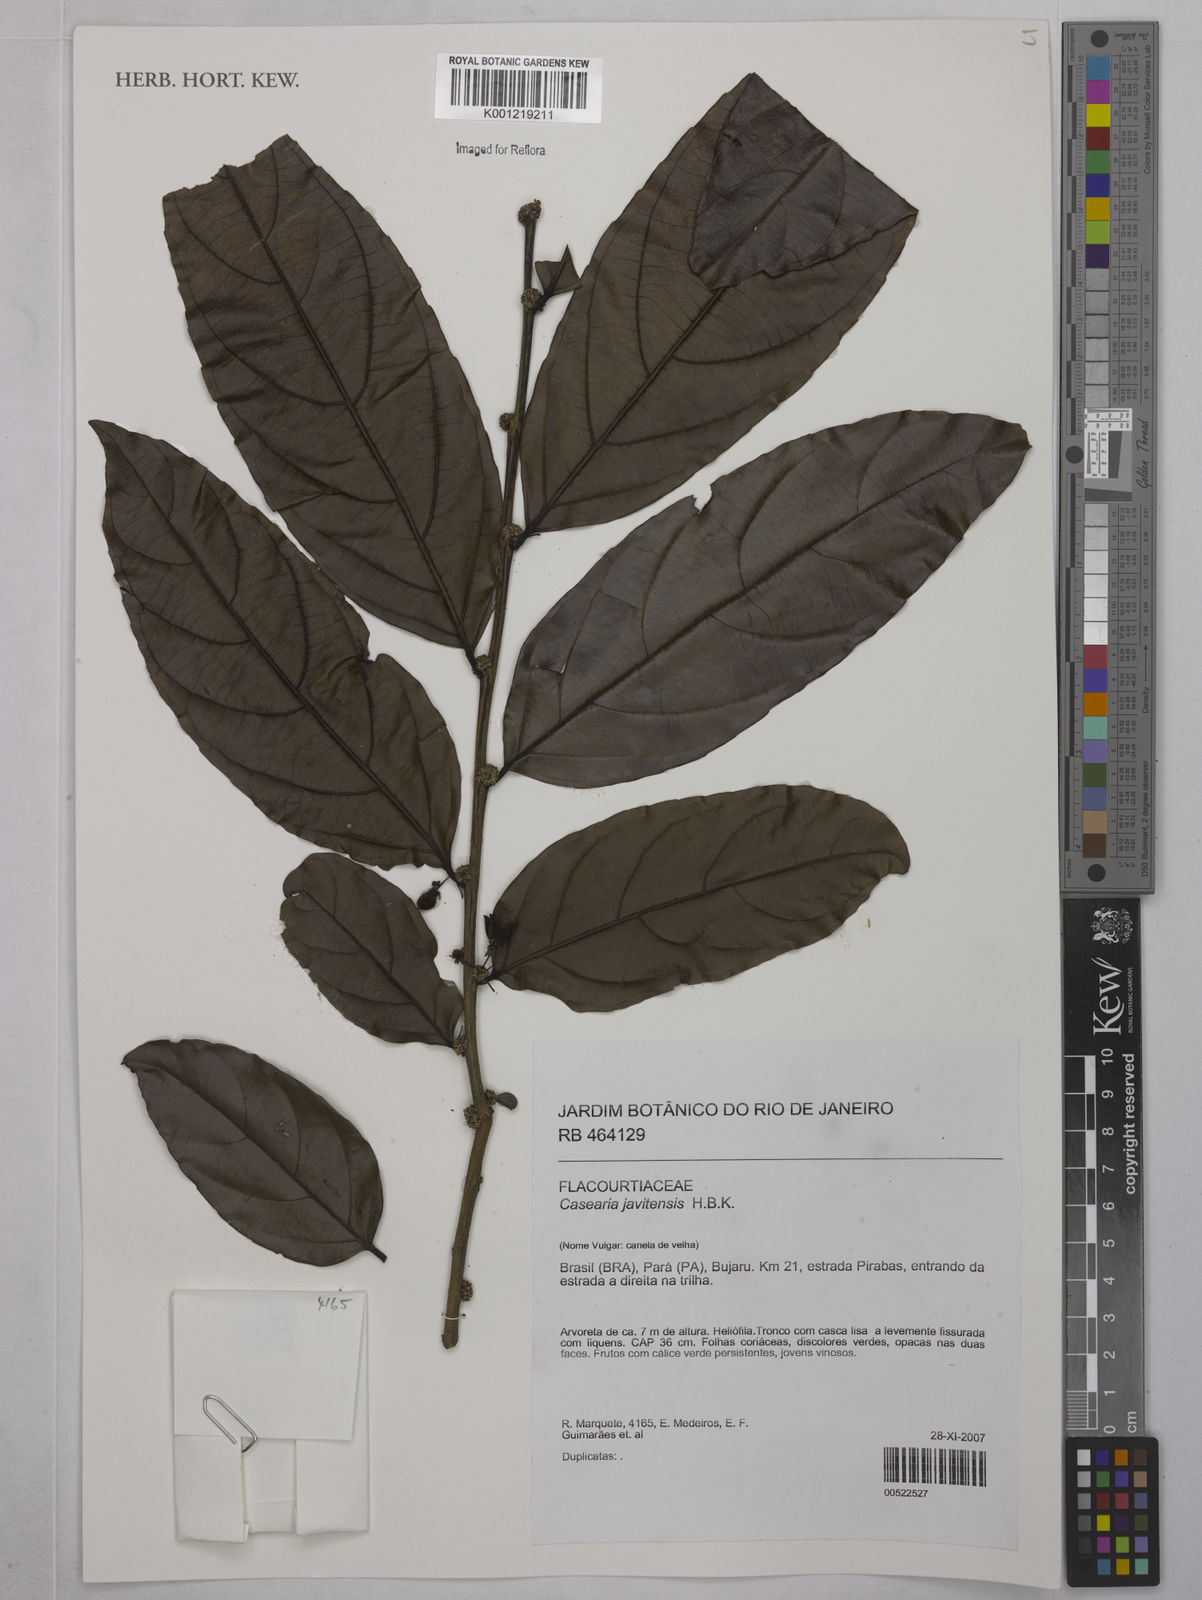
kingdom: Plantae
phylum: Tracheophyta
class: Magnoliopsida
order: Malpighiales
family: Salicaceae
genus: Piparea
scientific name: Piparea multiflora
